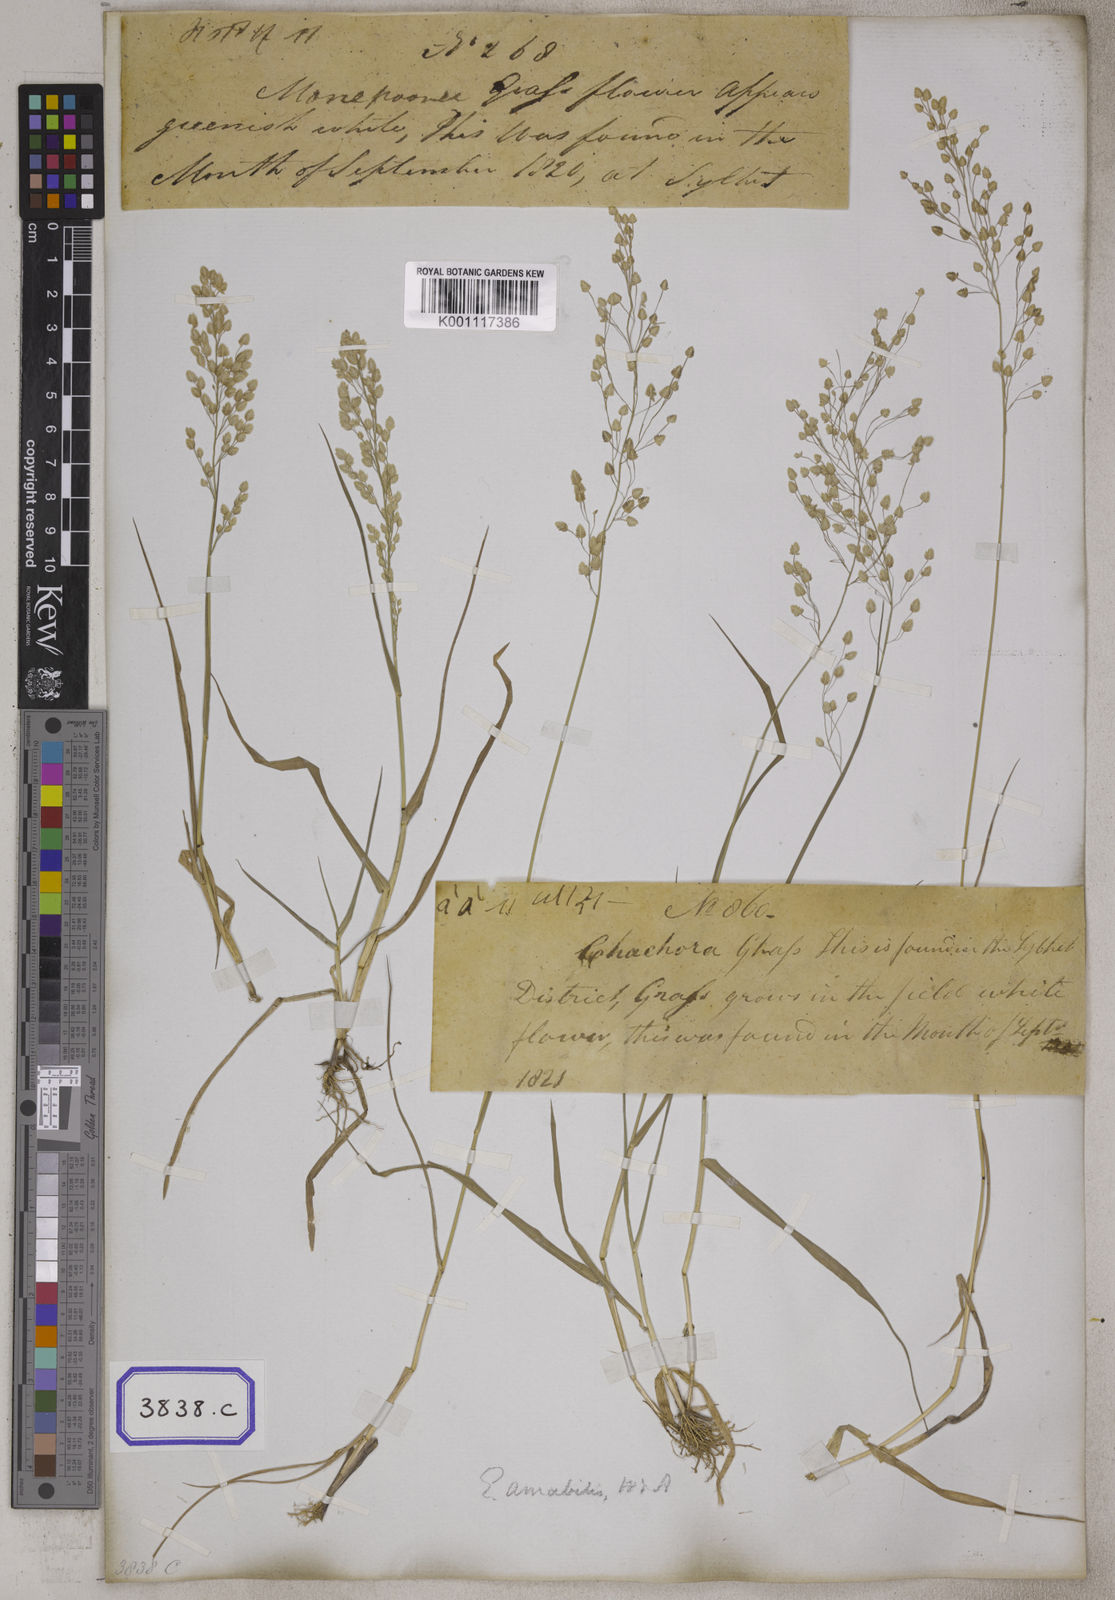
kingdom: Plantae
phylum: Tracheophyta
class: Liliopsida
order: Poales
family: Poaceae
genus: Eragrostis
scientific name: Eragrostis
